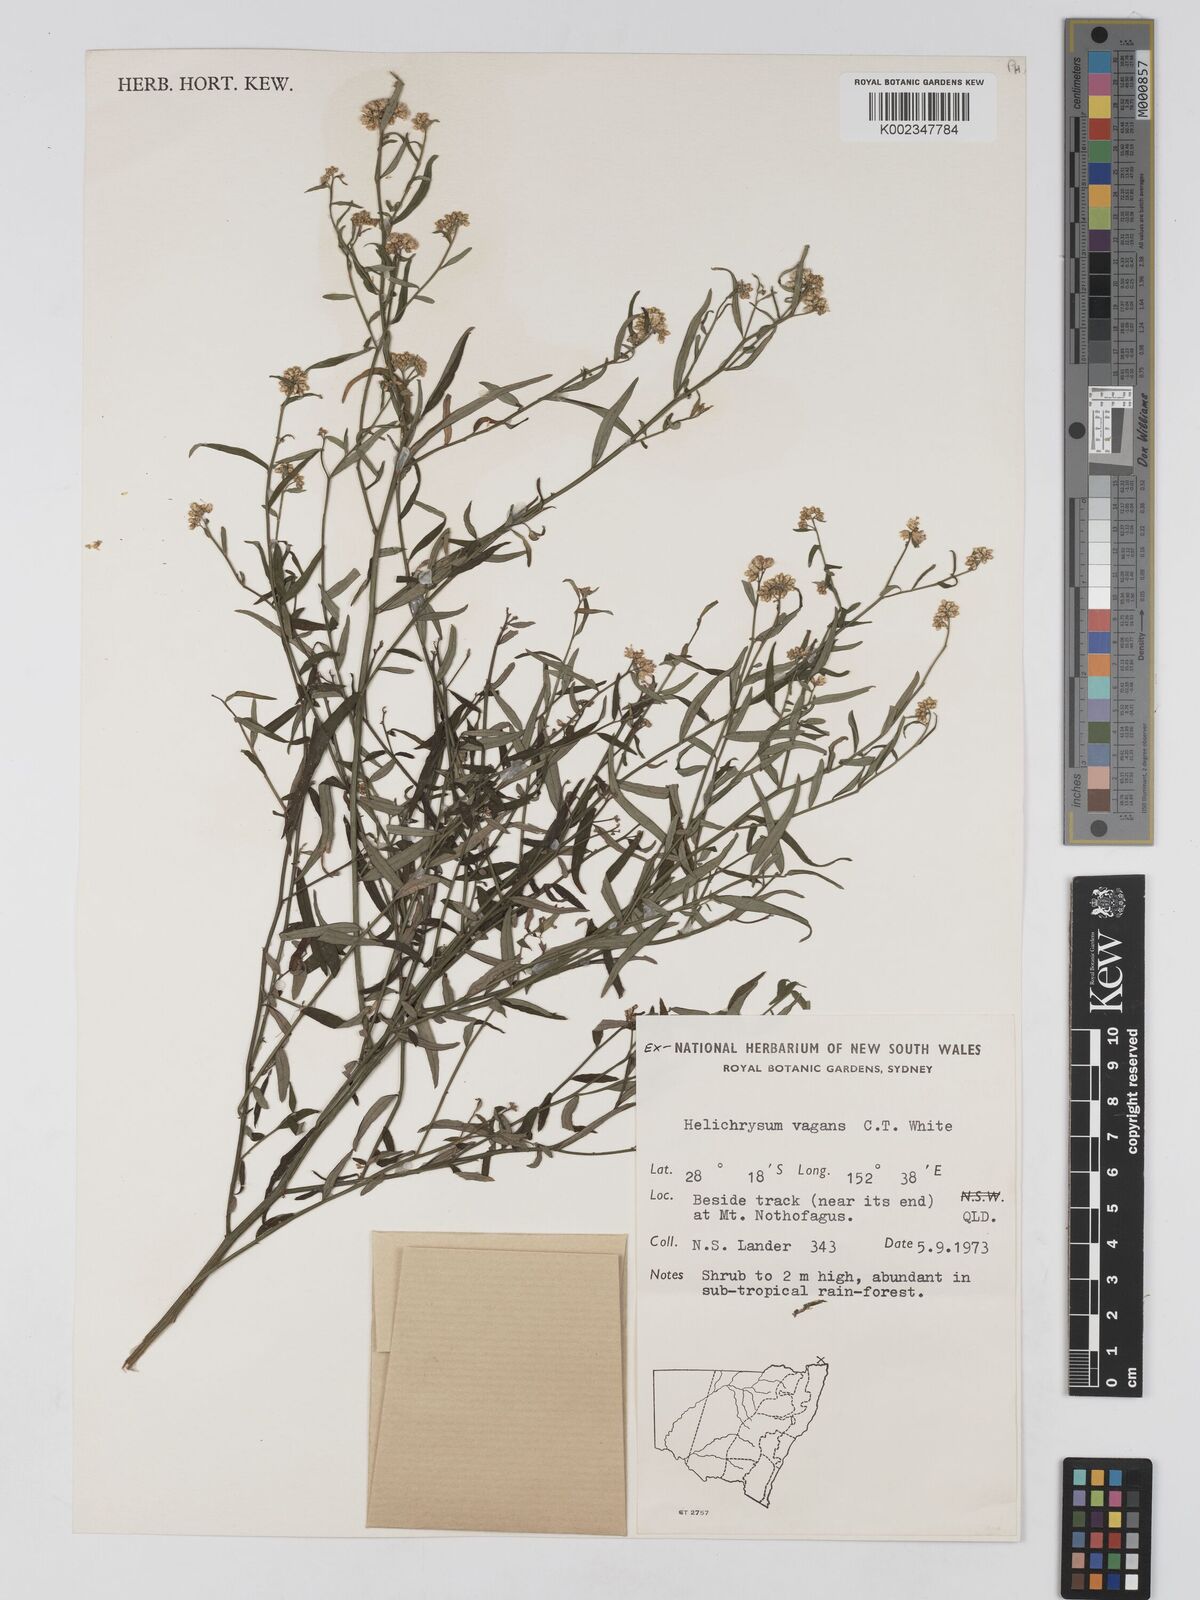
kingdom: Plantae
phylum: Tracheophyta
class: Magnoliopsida
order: Asterales
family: Asteraceae
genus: Ozothamnus
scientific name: Ozothamnus vagans
